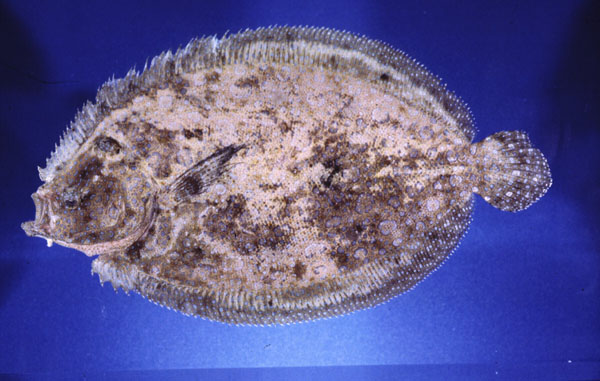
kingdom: Animalia
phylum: Chordata
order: Pleuronectiformes
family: Bothidae
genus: Bothus
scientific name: Bothus mancus
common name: Flowery flounder
